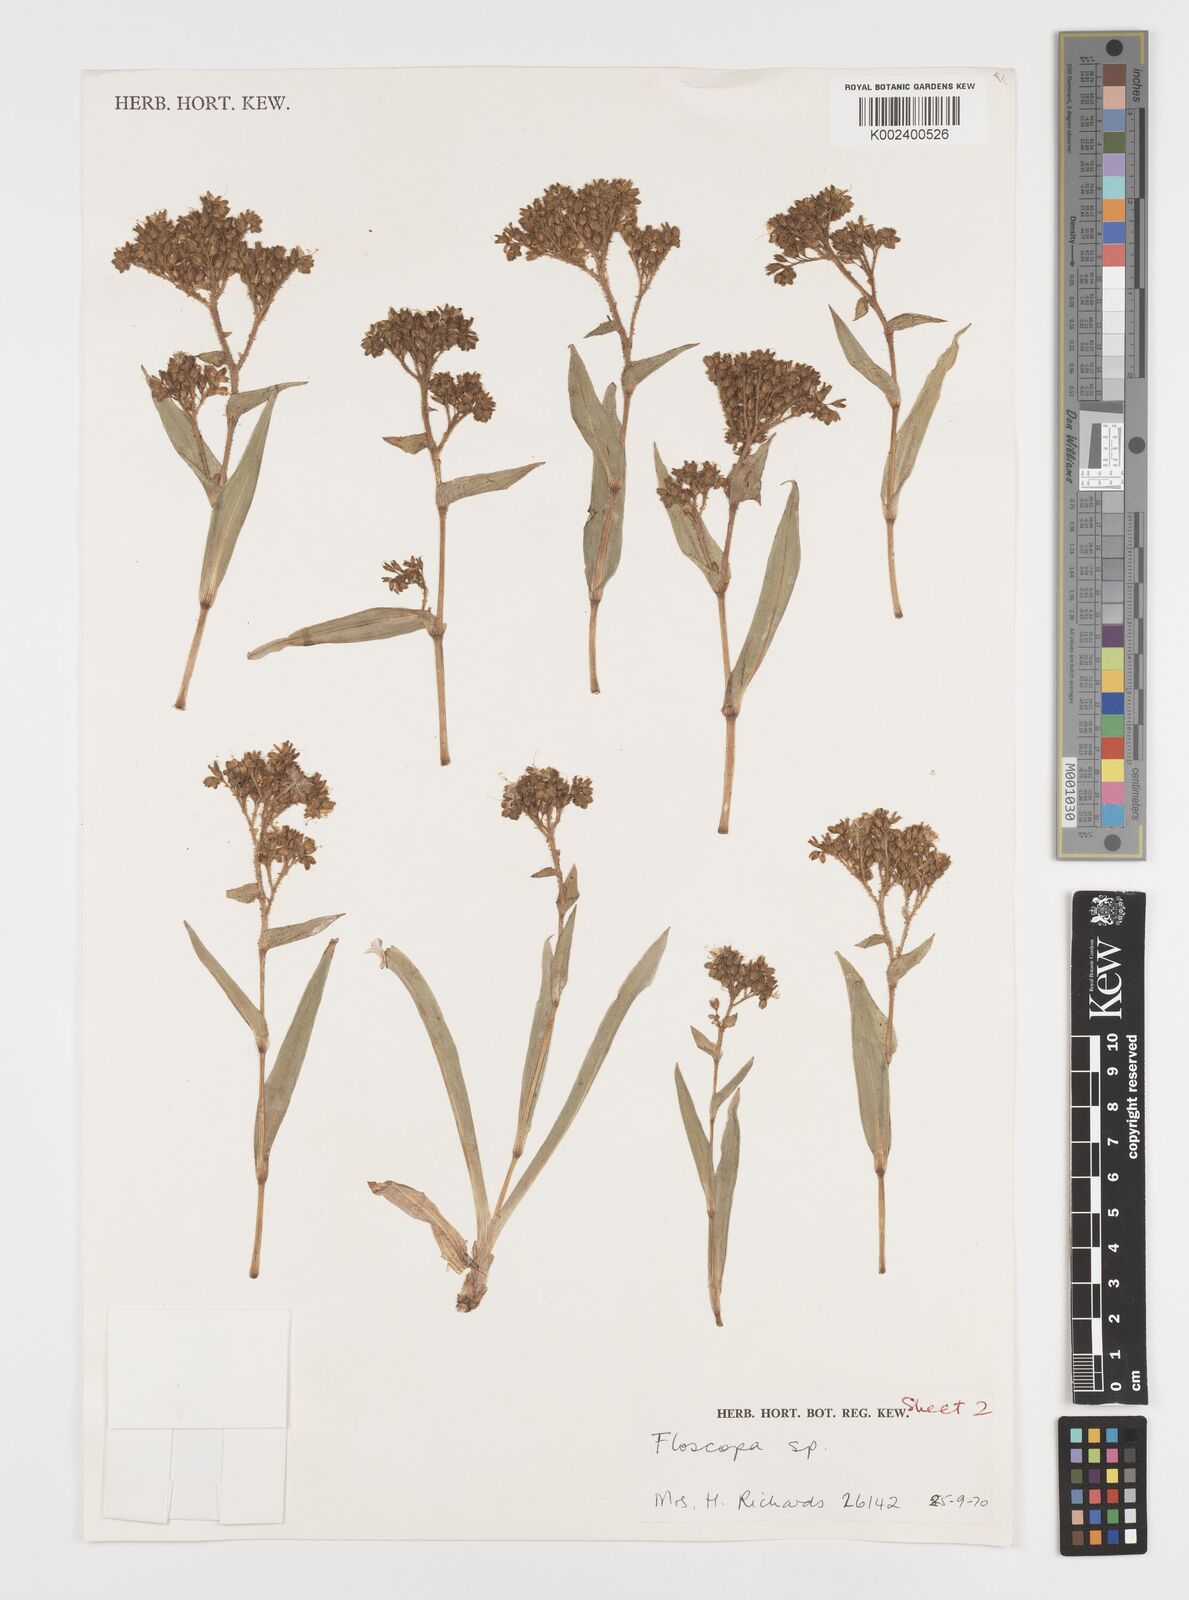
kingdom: Plantae
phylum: Tracheophyta
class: Liliopsida
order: Commelinales
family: Commelinaceae
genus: Floscopa
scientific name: Floscopa tanneri
